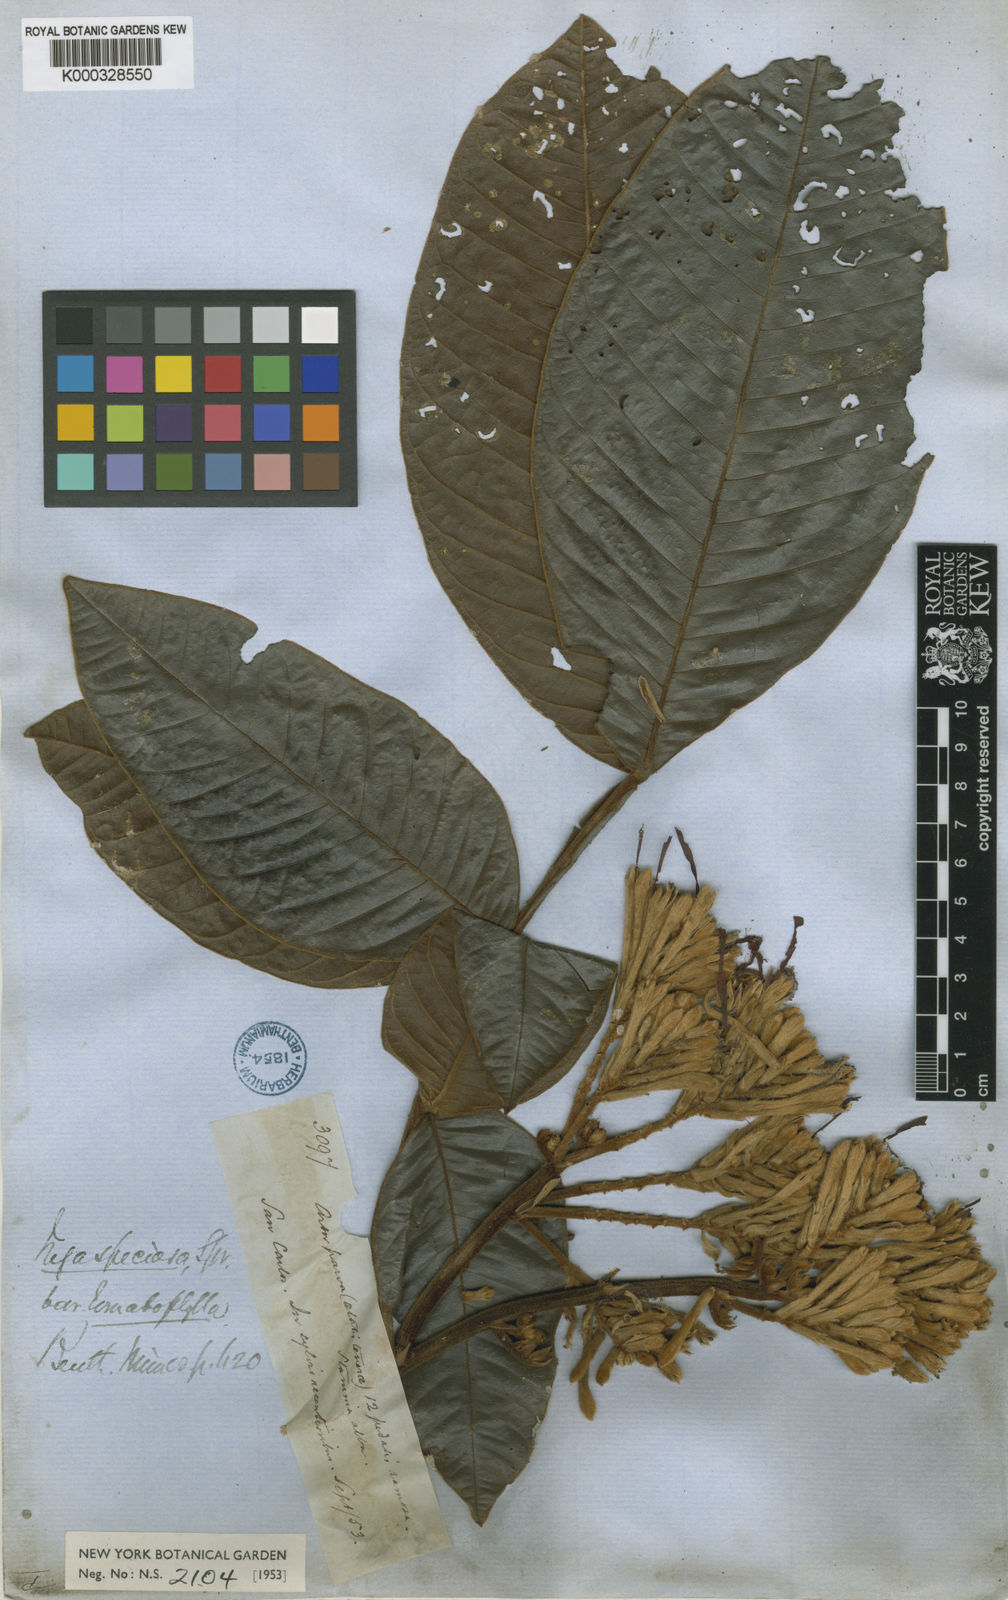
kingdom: Plantae
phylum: Tracheophyta
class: Magnoliopsida
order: Fabales
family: Fabaceae
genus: Inga
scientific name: Inga lomatophylla
